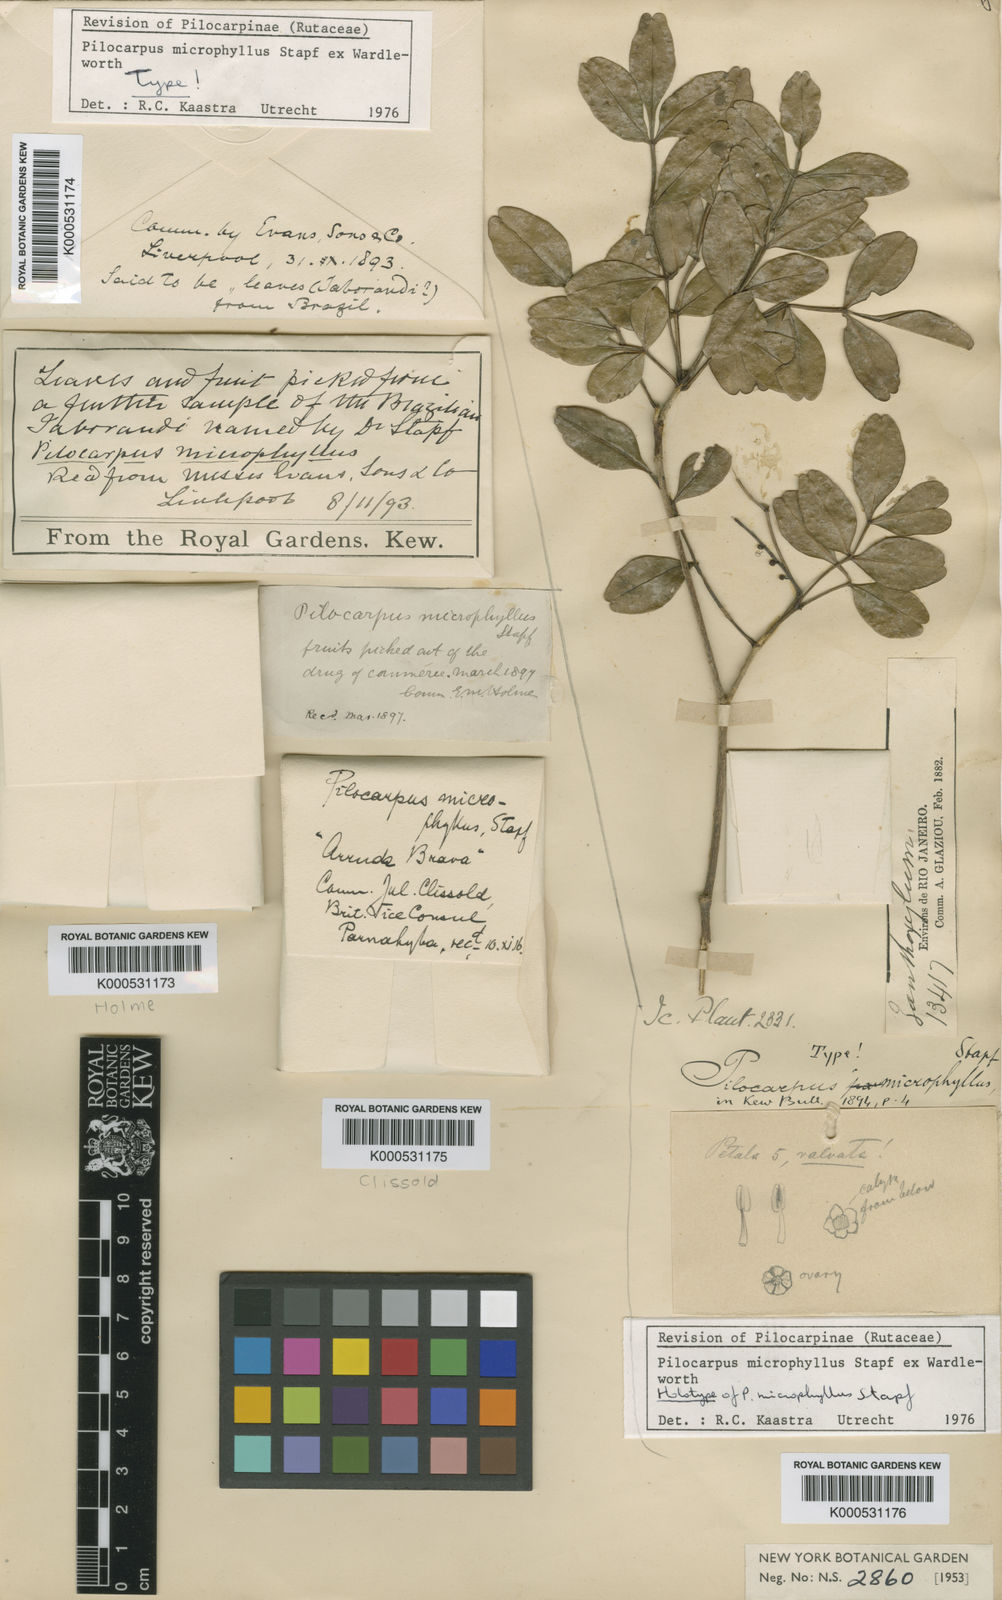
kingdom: Plantae
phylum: Tracheophyta
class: Magnoliopsida
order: Sapindales
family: Rutaceae
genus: Pilocarpus
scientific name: Pilocarpus microphyllus
